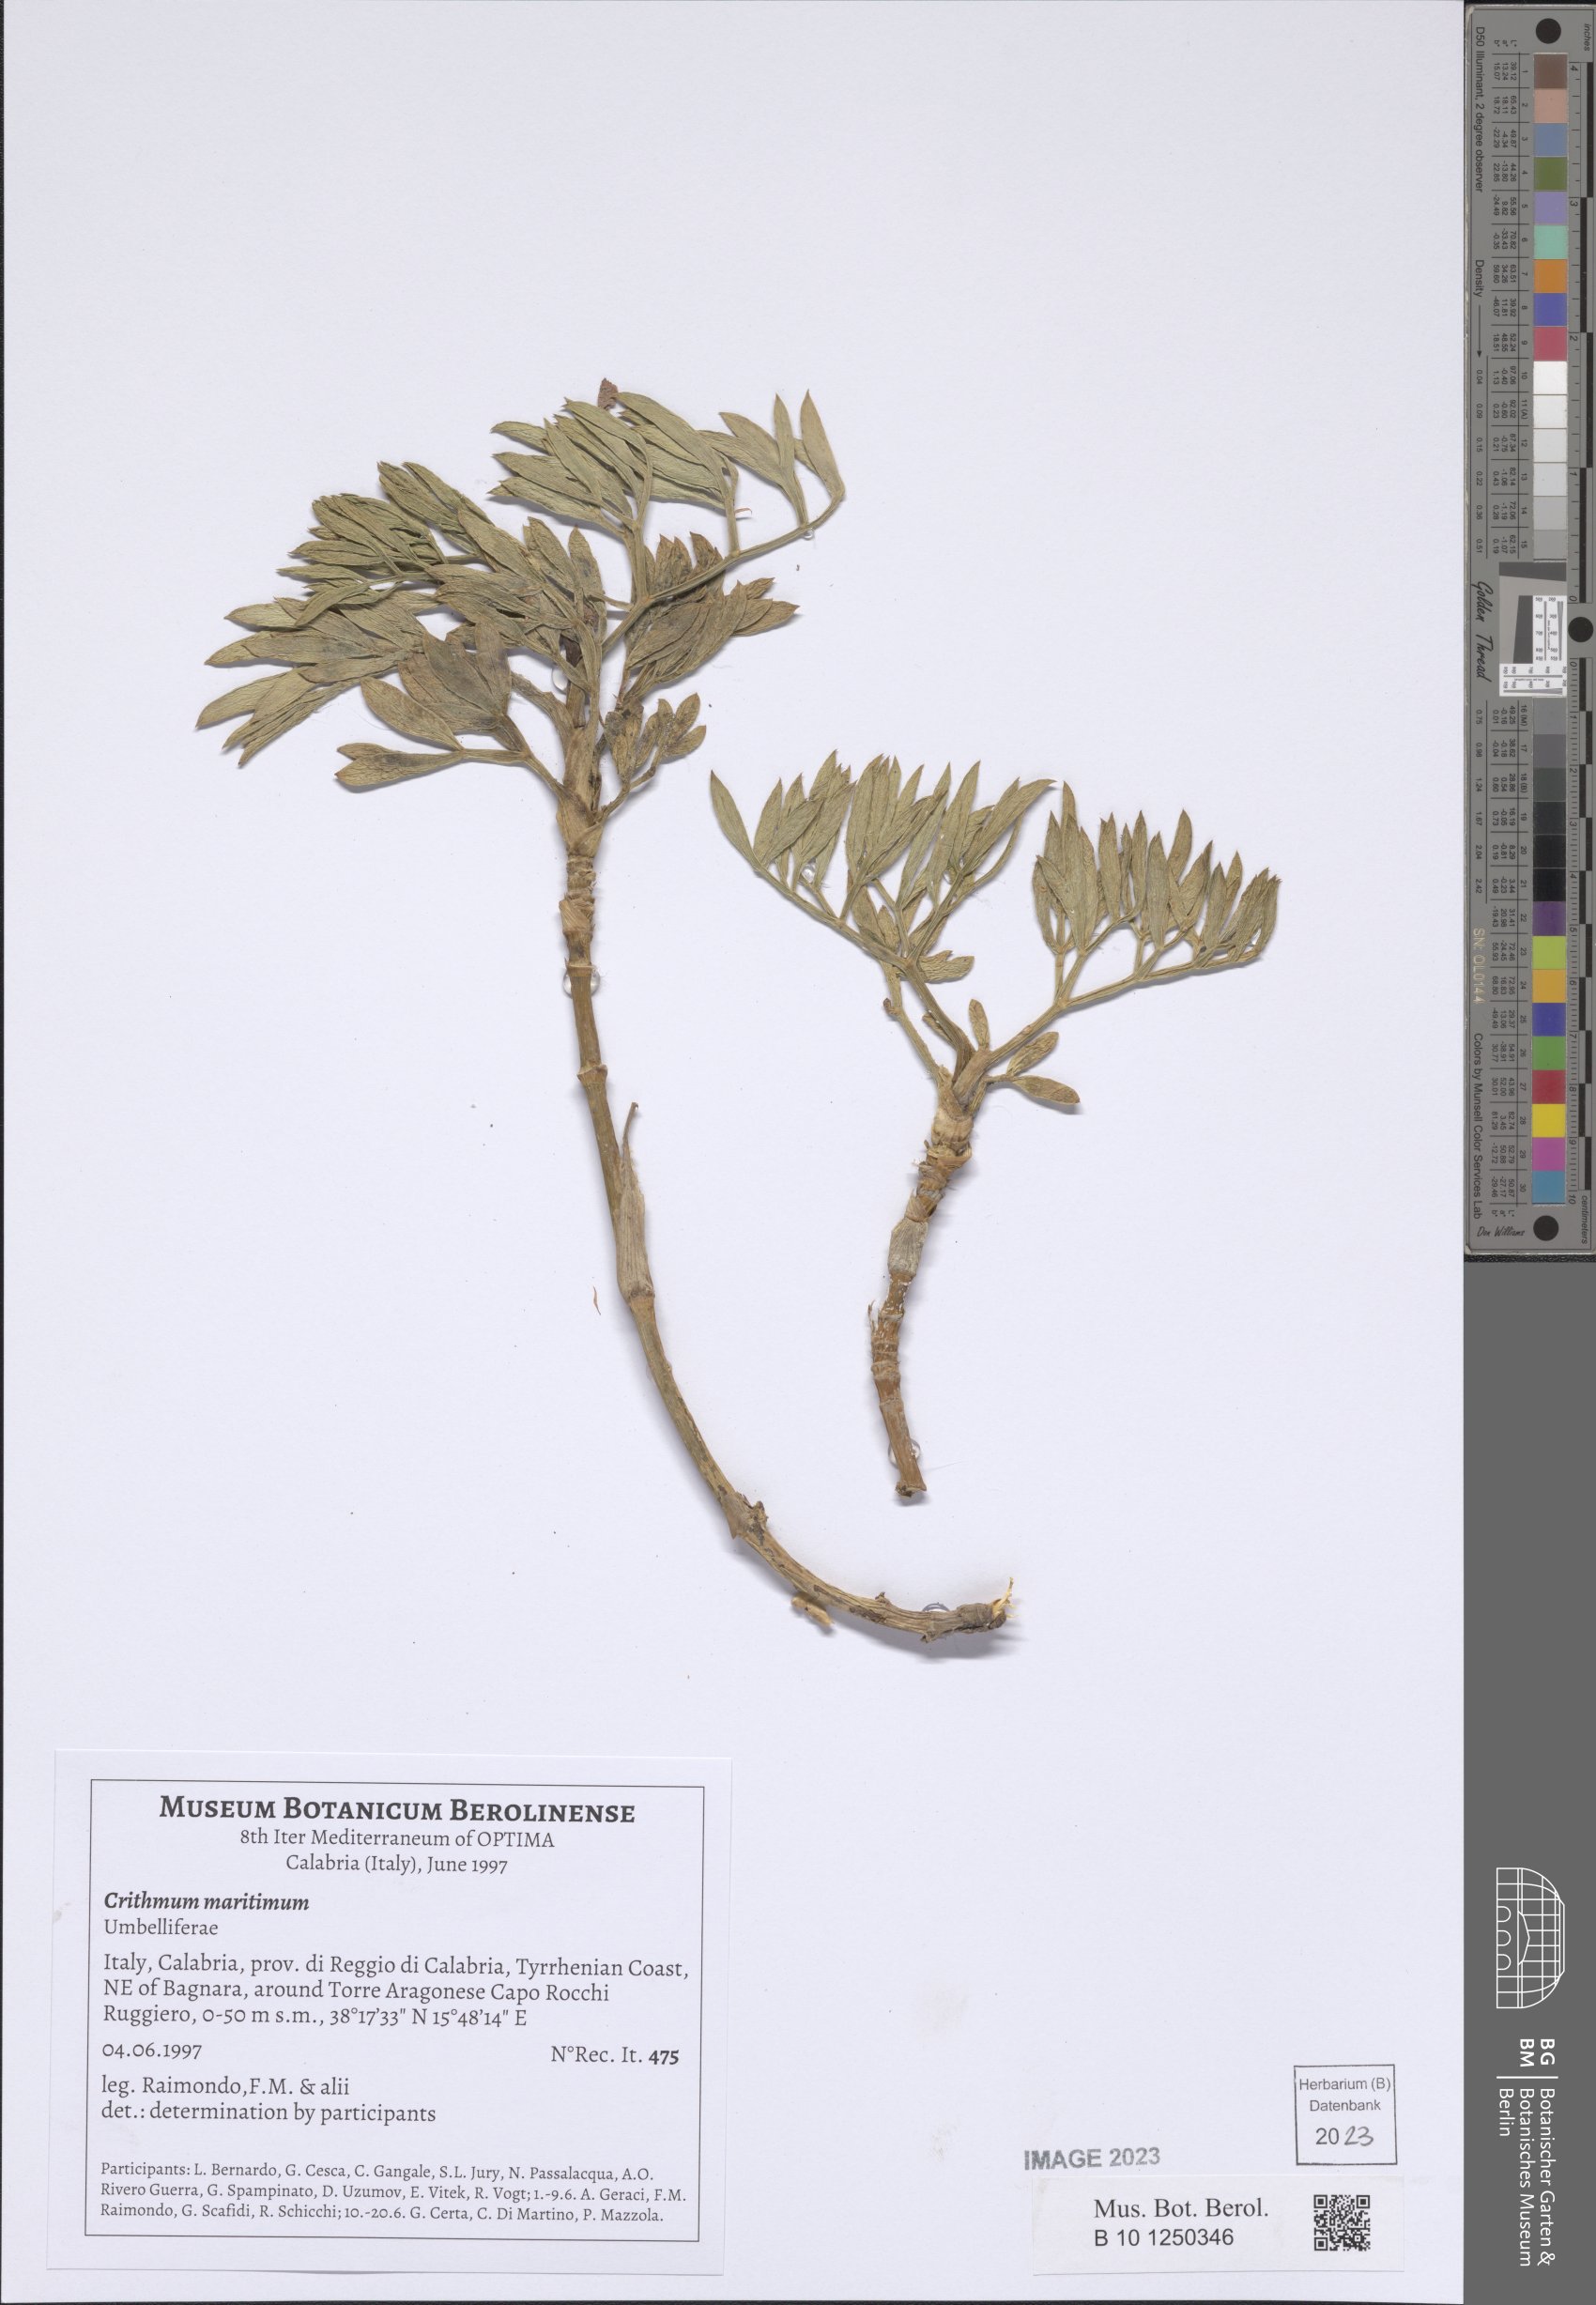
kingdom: Plantae
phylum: Tracheophyta
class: Magnoliopsida
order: Apiales
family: Apiaceae
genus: Crithmum
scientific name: Crithmum maritimum
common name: Rock samphire
